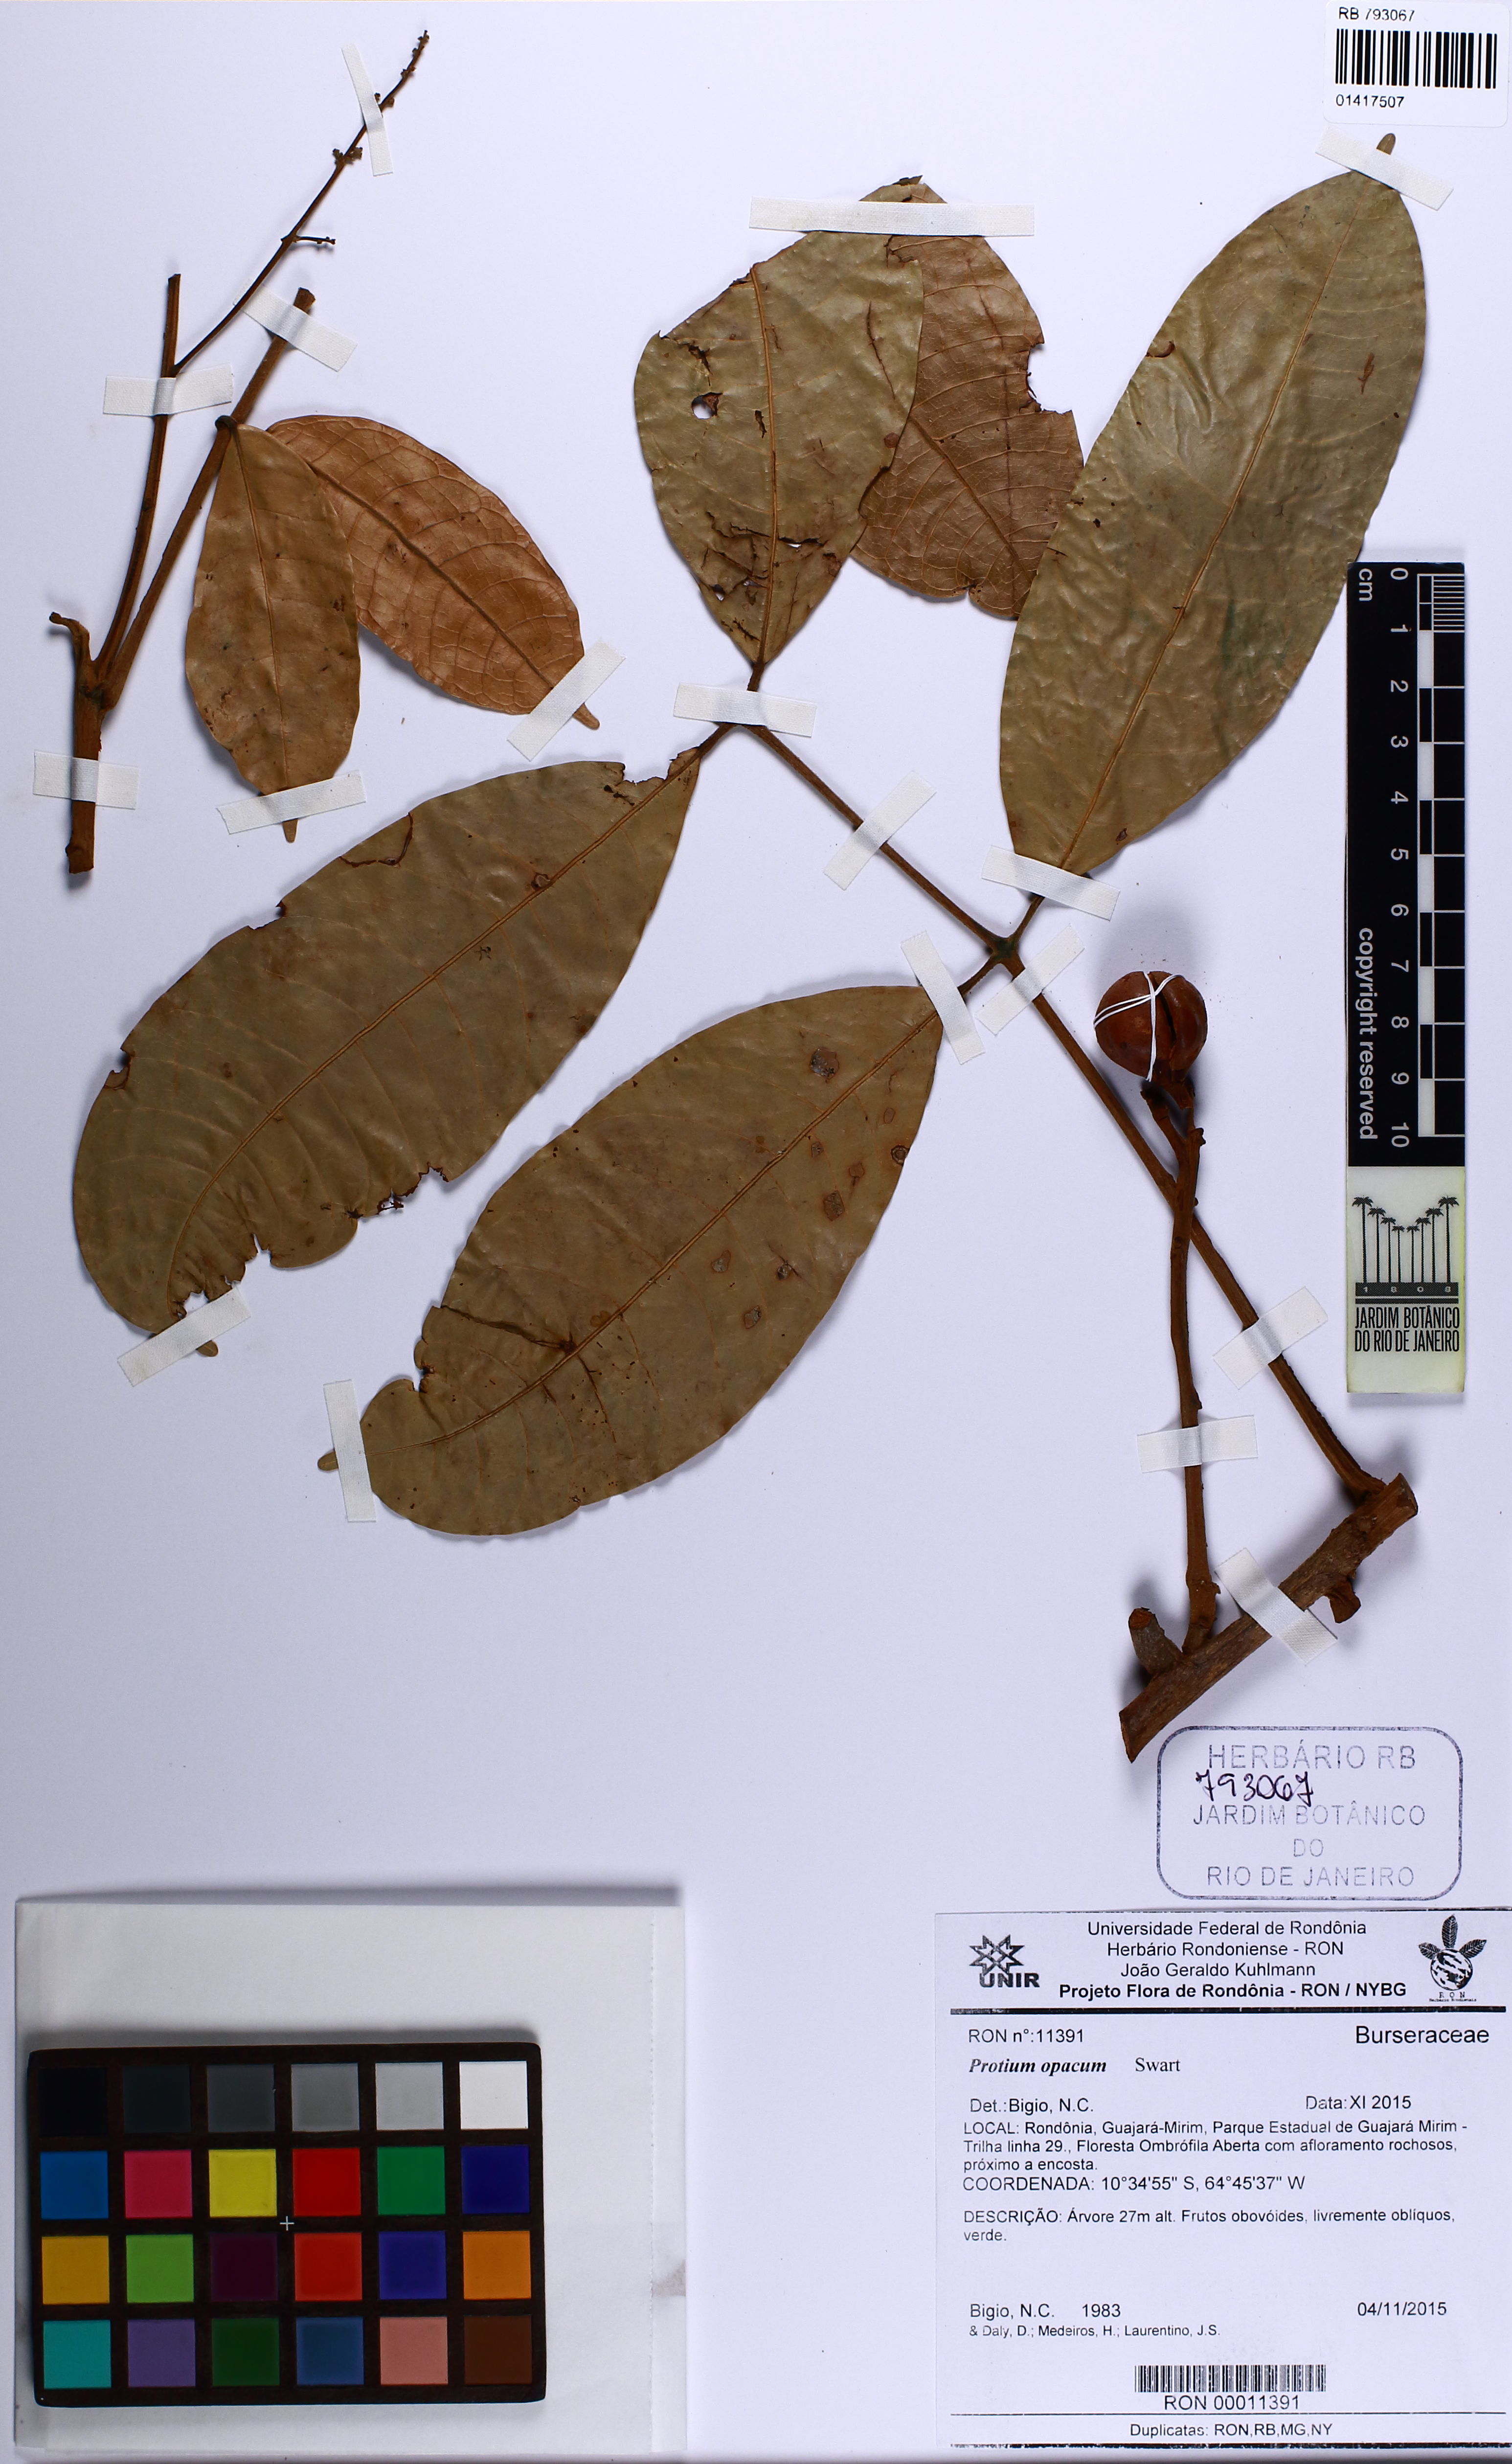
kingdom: Plantae
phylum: Tracheophyta
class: Magnoliopsida
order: Sapindales
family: Burseraceae
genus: Protium
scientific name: Protium opacum
